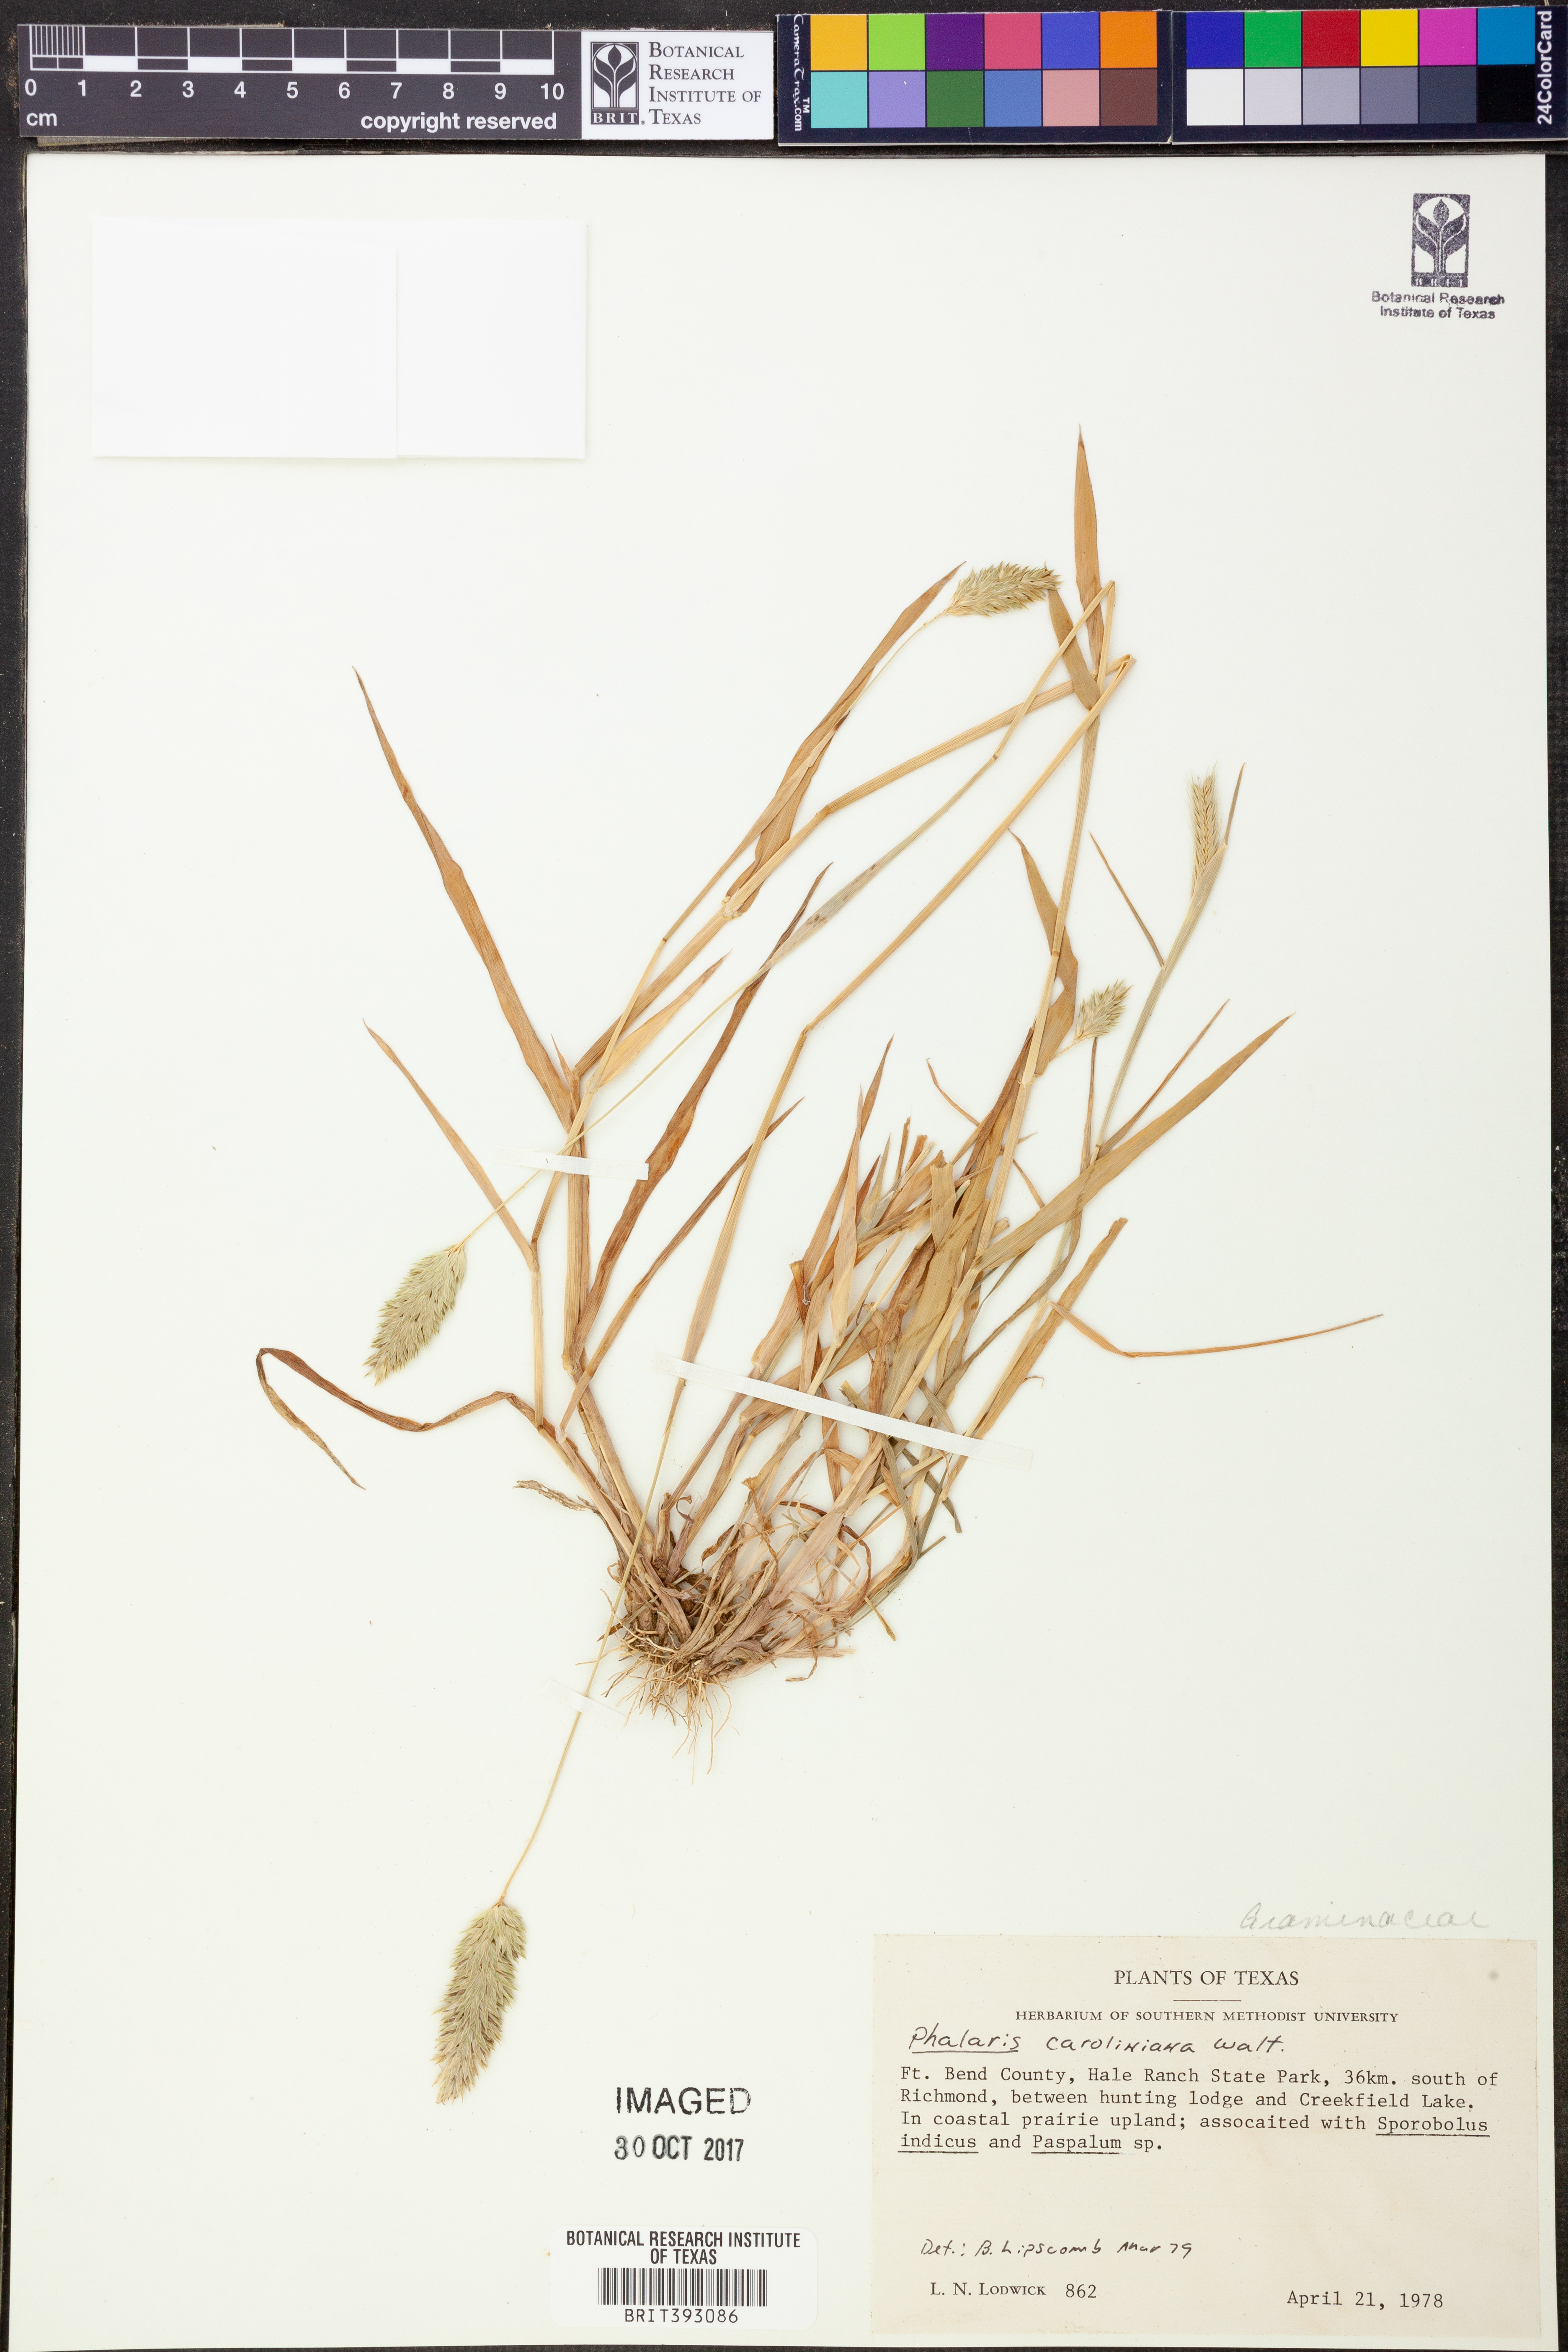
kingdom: Plantae
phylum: Tracheophyta
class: Liliopsida
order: Poales
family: Poaceae
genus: Phalaris
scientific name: Phalaris caroliniana
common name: May grass
